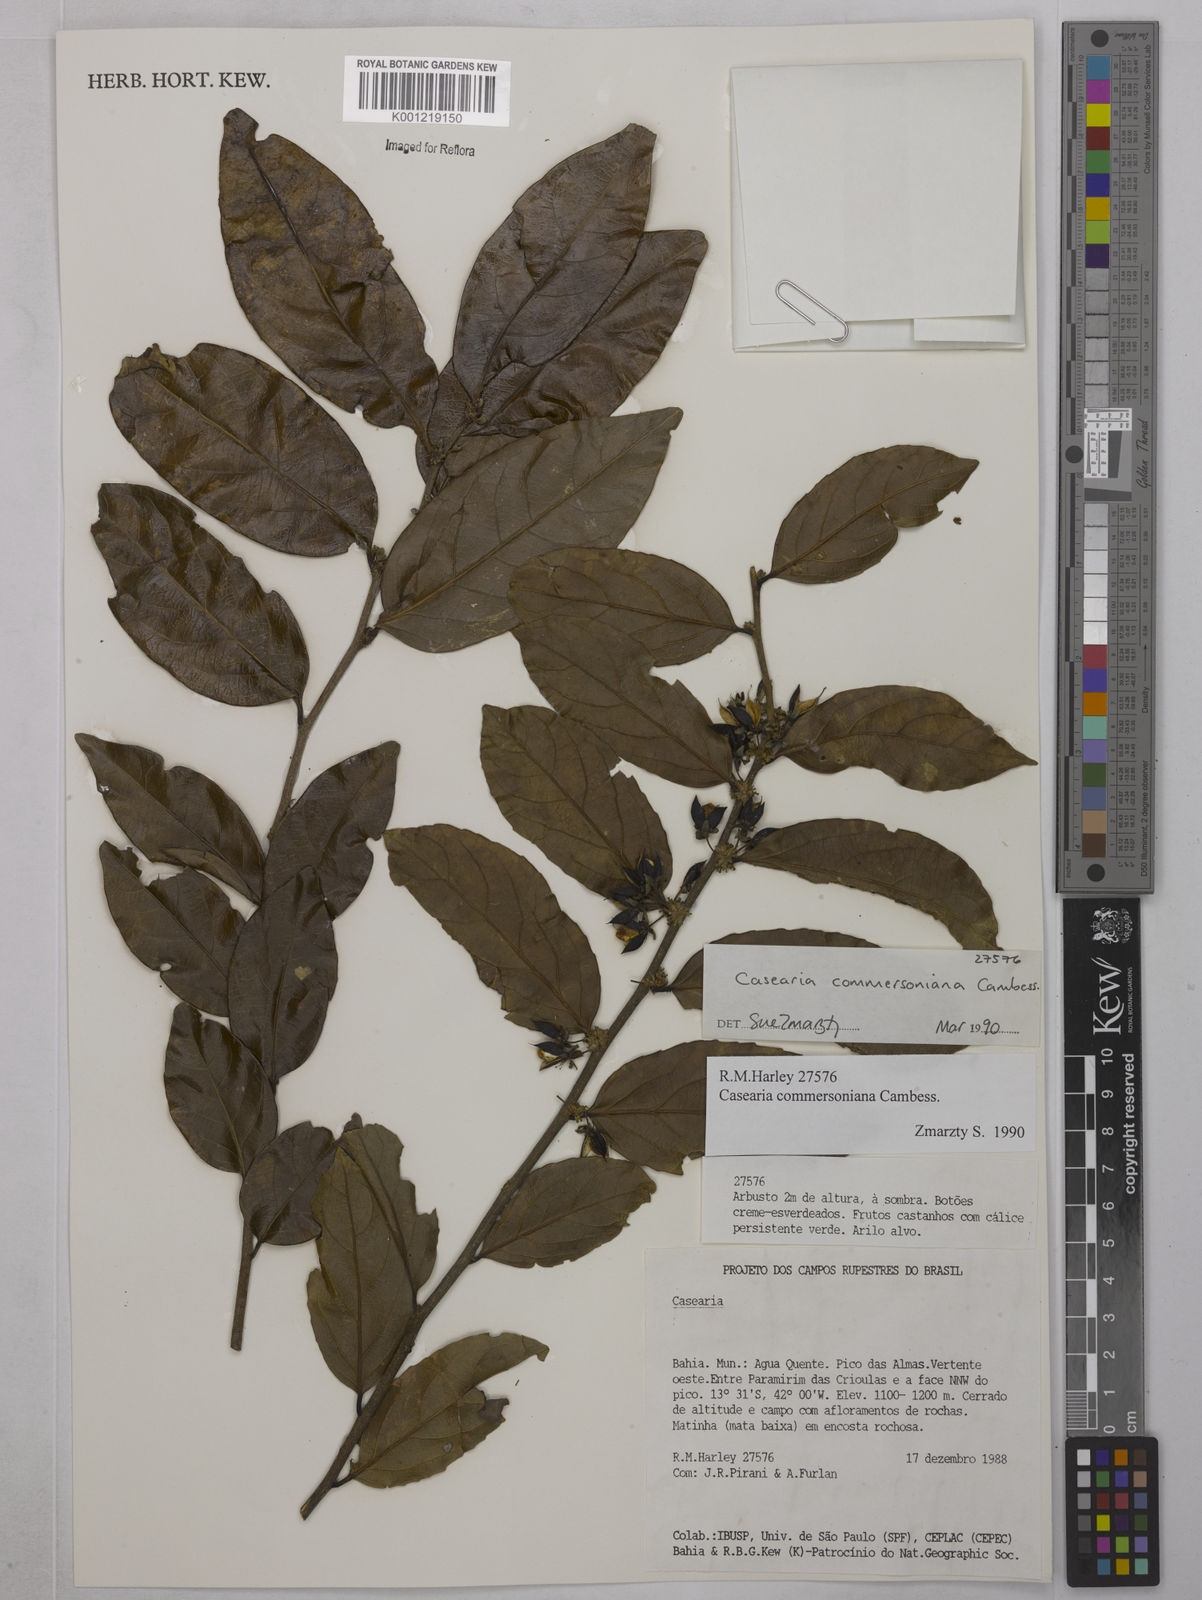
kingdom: Plantae
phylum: Tracheophyta
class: Magnoliopsida
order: Malpighiales
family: Salicaceae
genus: Piparea
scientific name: Piparea dentata
